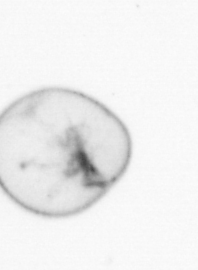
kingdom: Chromista
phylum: Myzozoa
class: Dinophyceae
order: Noctilucales
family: Noctilucaceae
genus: Noctiluca
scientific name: Noctiluca scintillans
